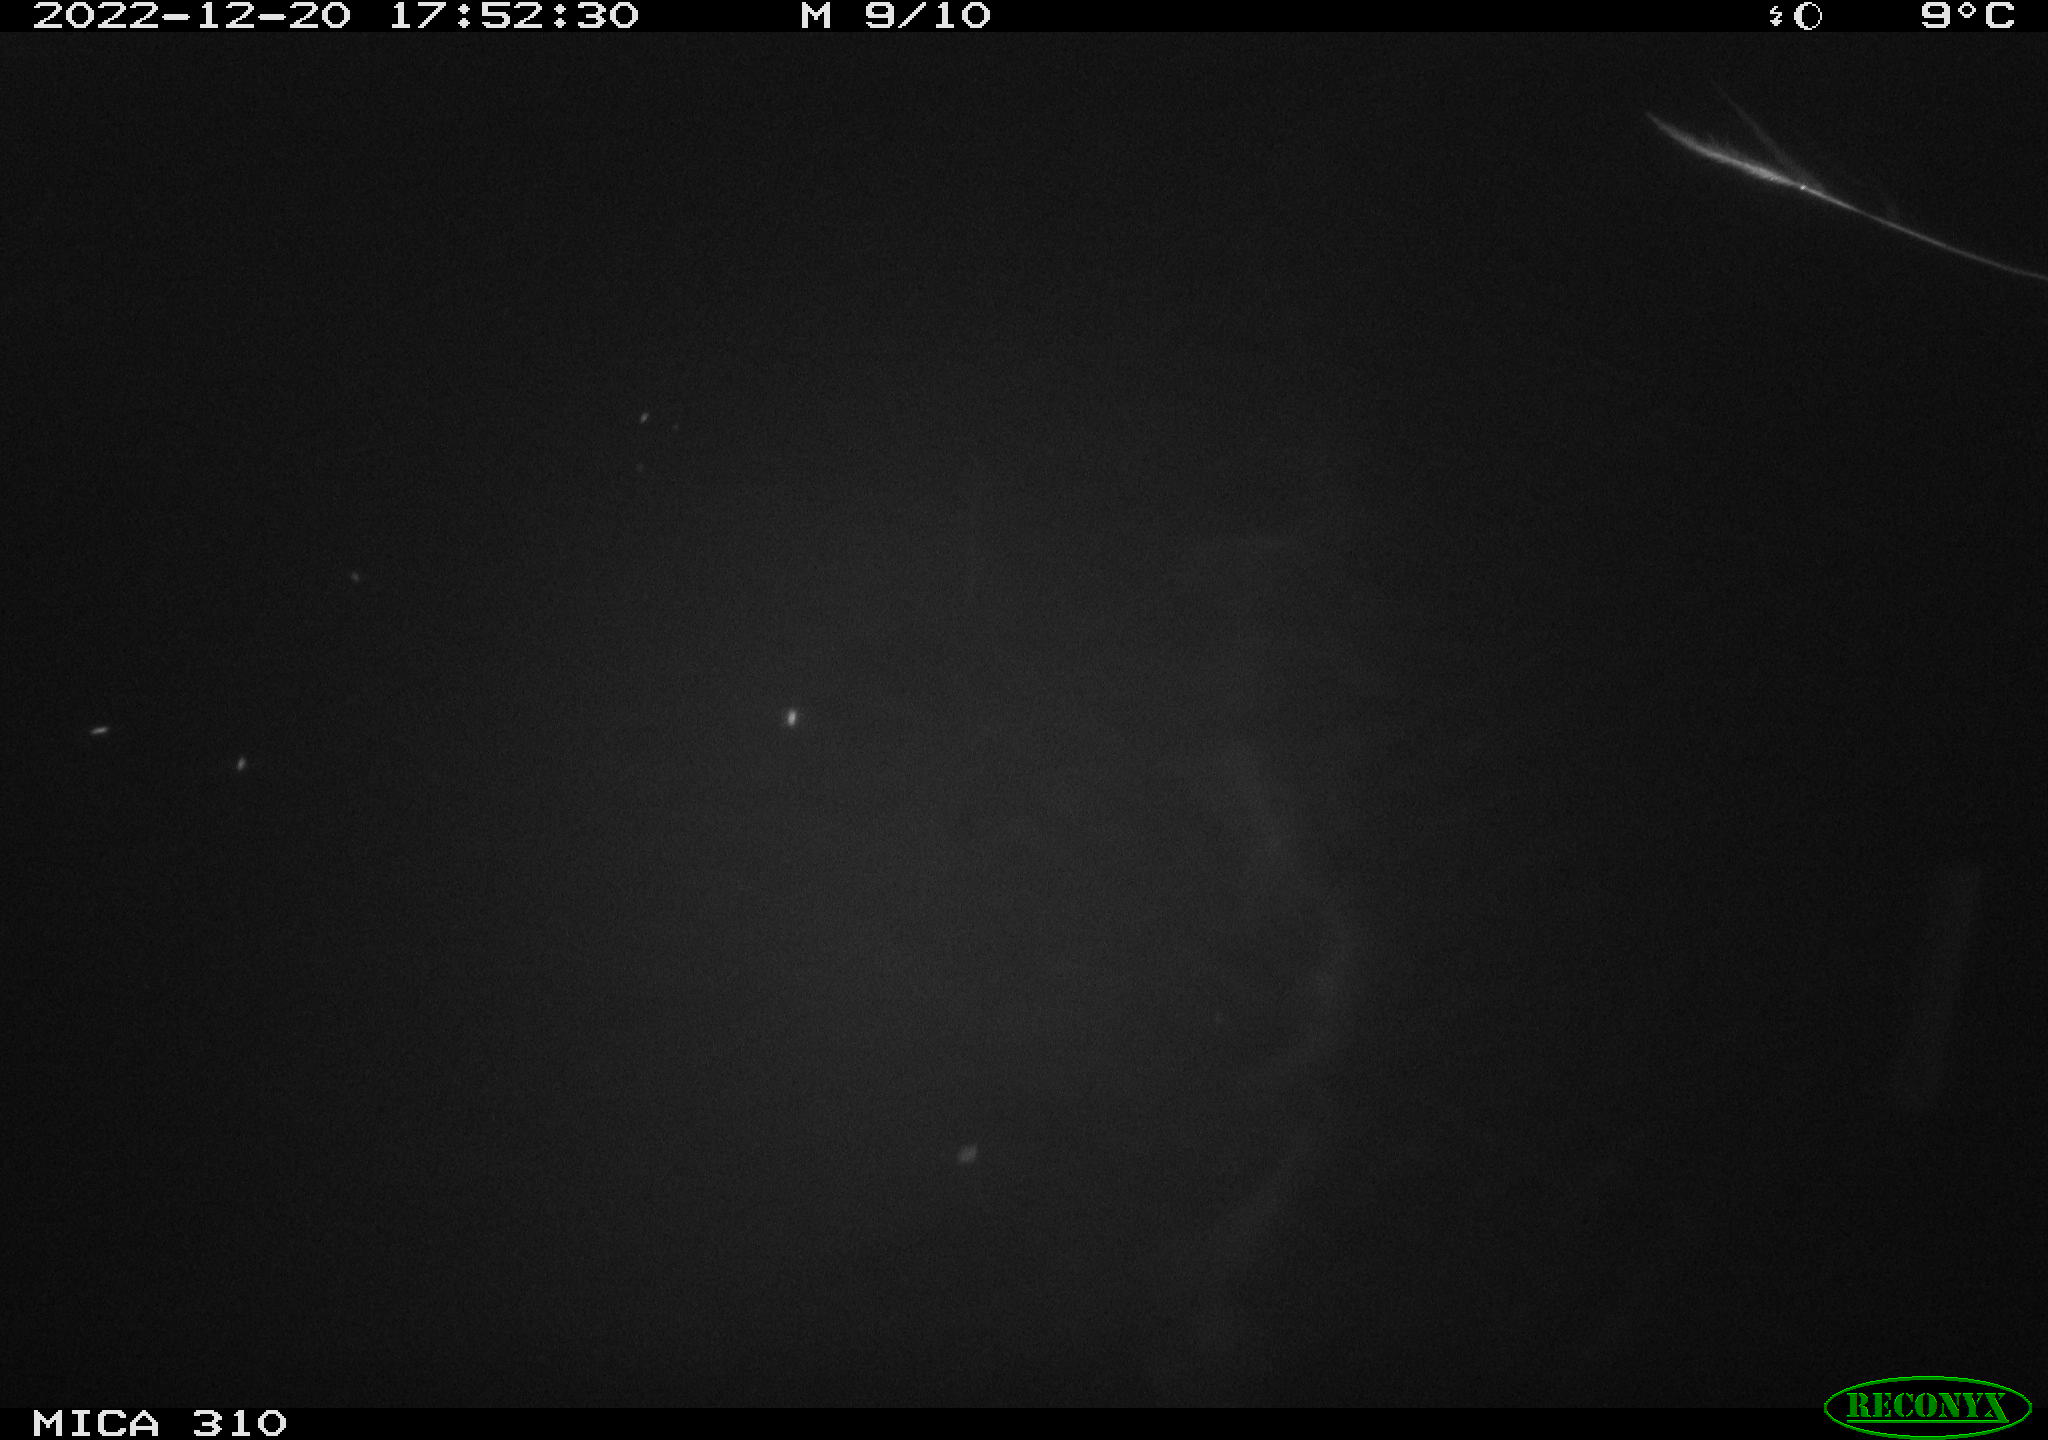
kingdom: Animalia
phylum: Chordata
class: Mammalia
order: Rodentia
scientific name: Rodentia
